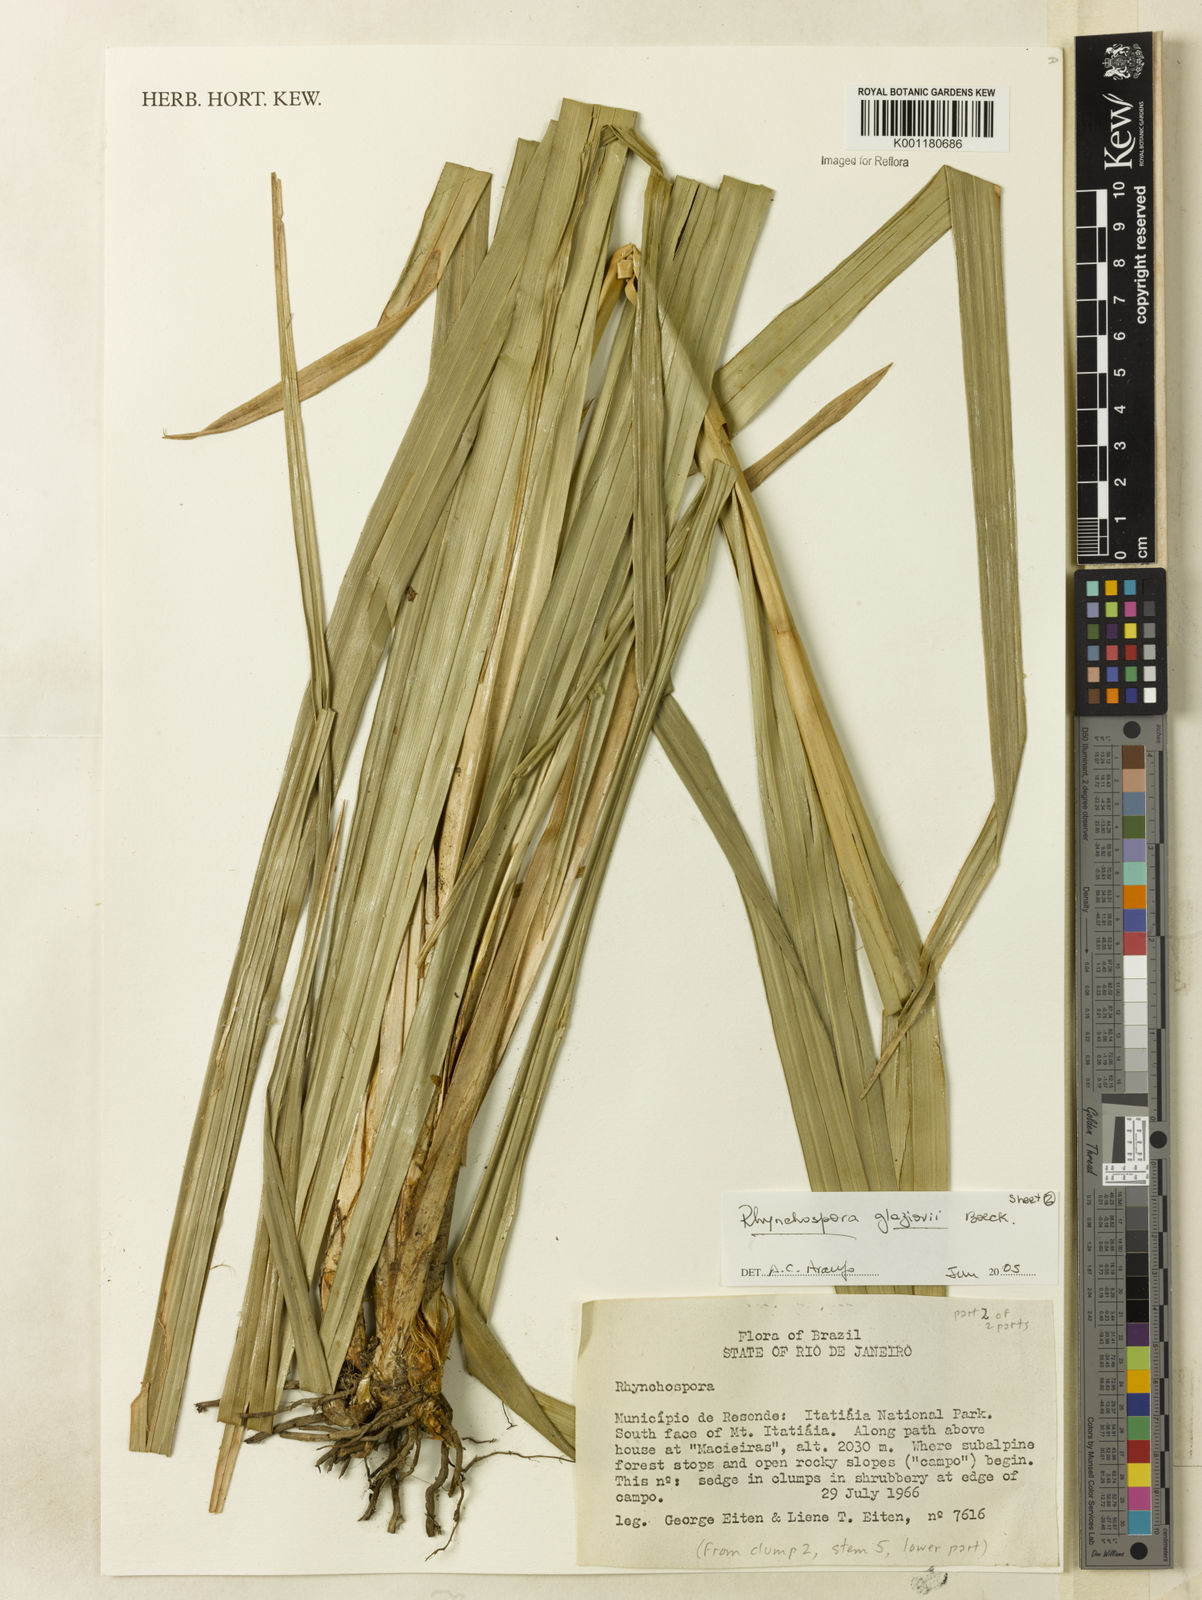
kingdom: Plantae
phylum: Tracheophyta
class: Liliopsida
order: Poales
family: Cyperaceae
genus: Rhynchospora
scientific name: Rhynchospora glaziovii
